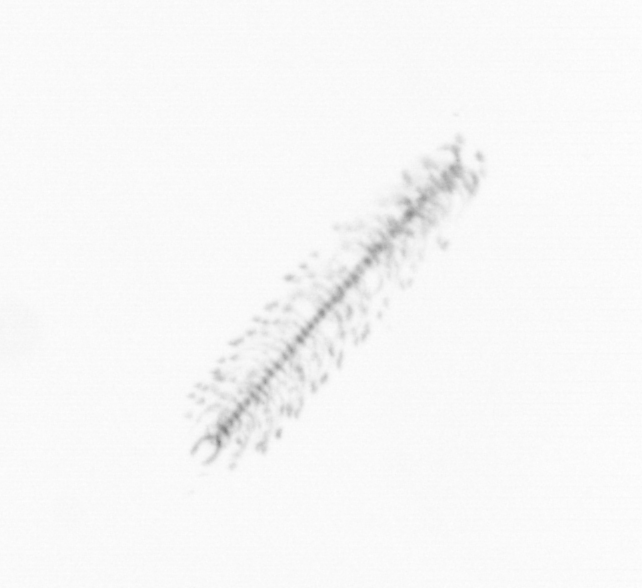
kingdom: Chromista
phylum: Ochrophyta
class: Bacillariophyceae
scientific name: Bacillariophyceae
